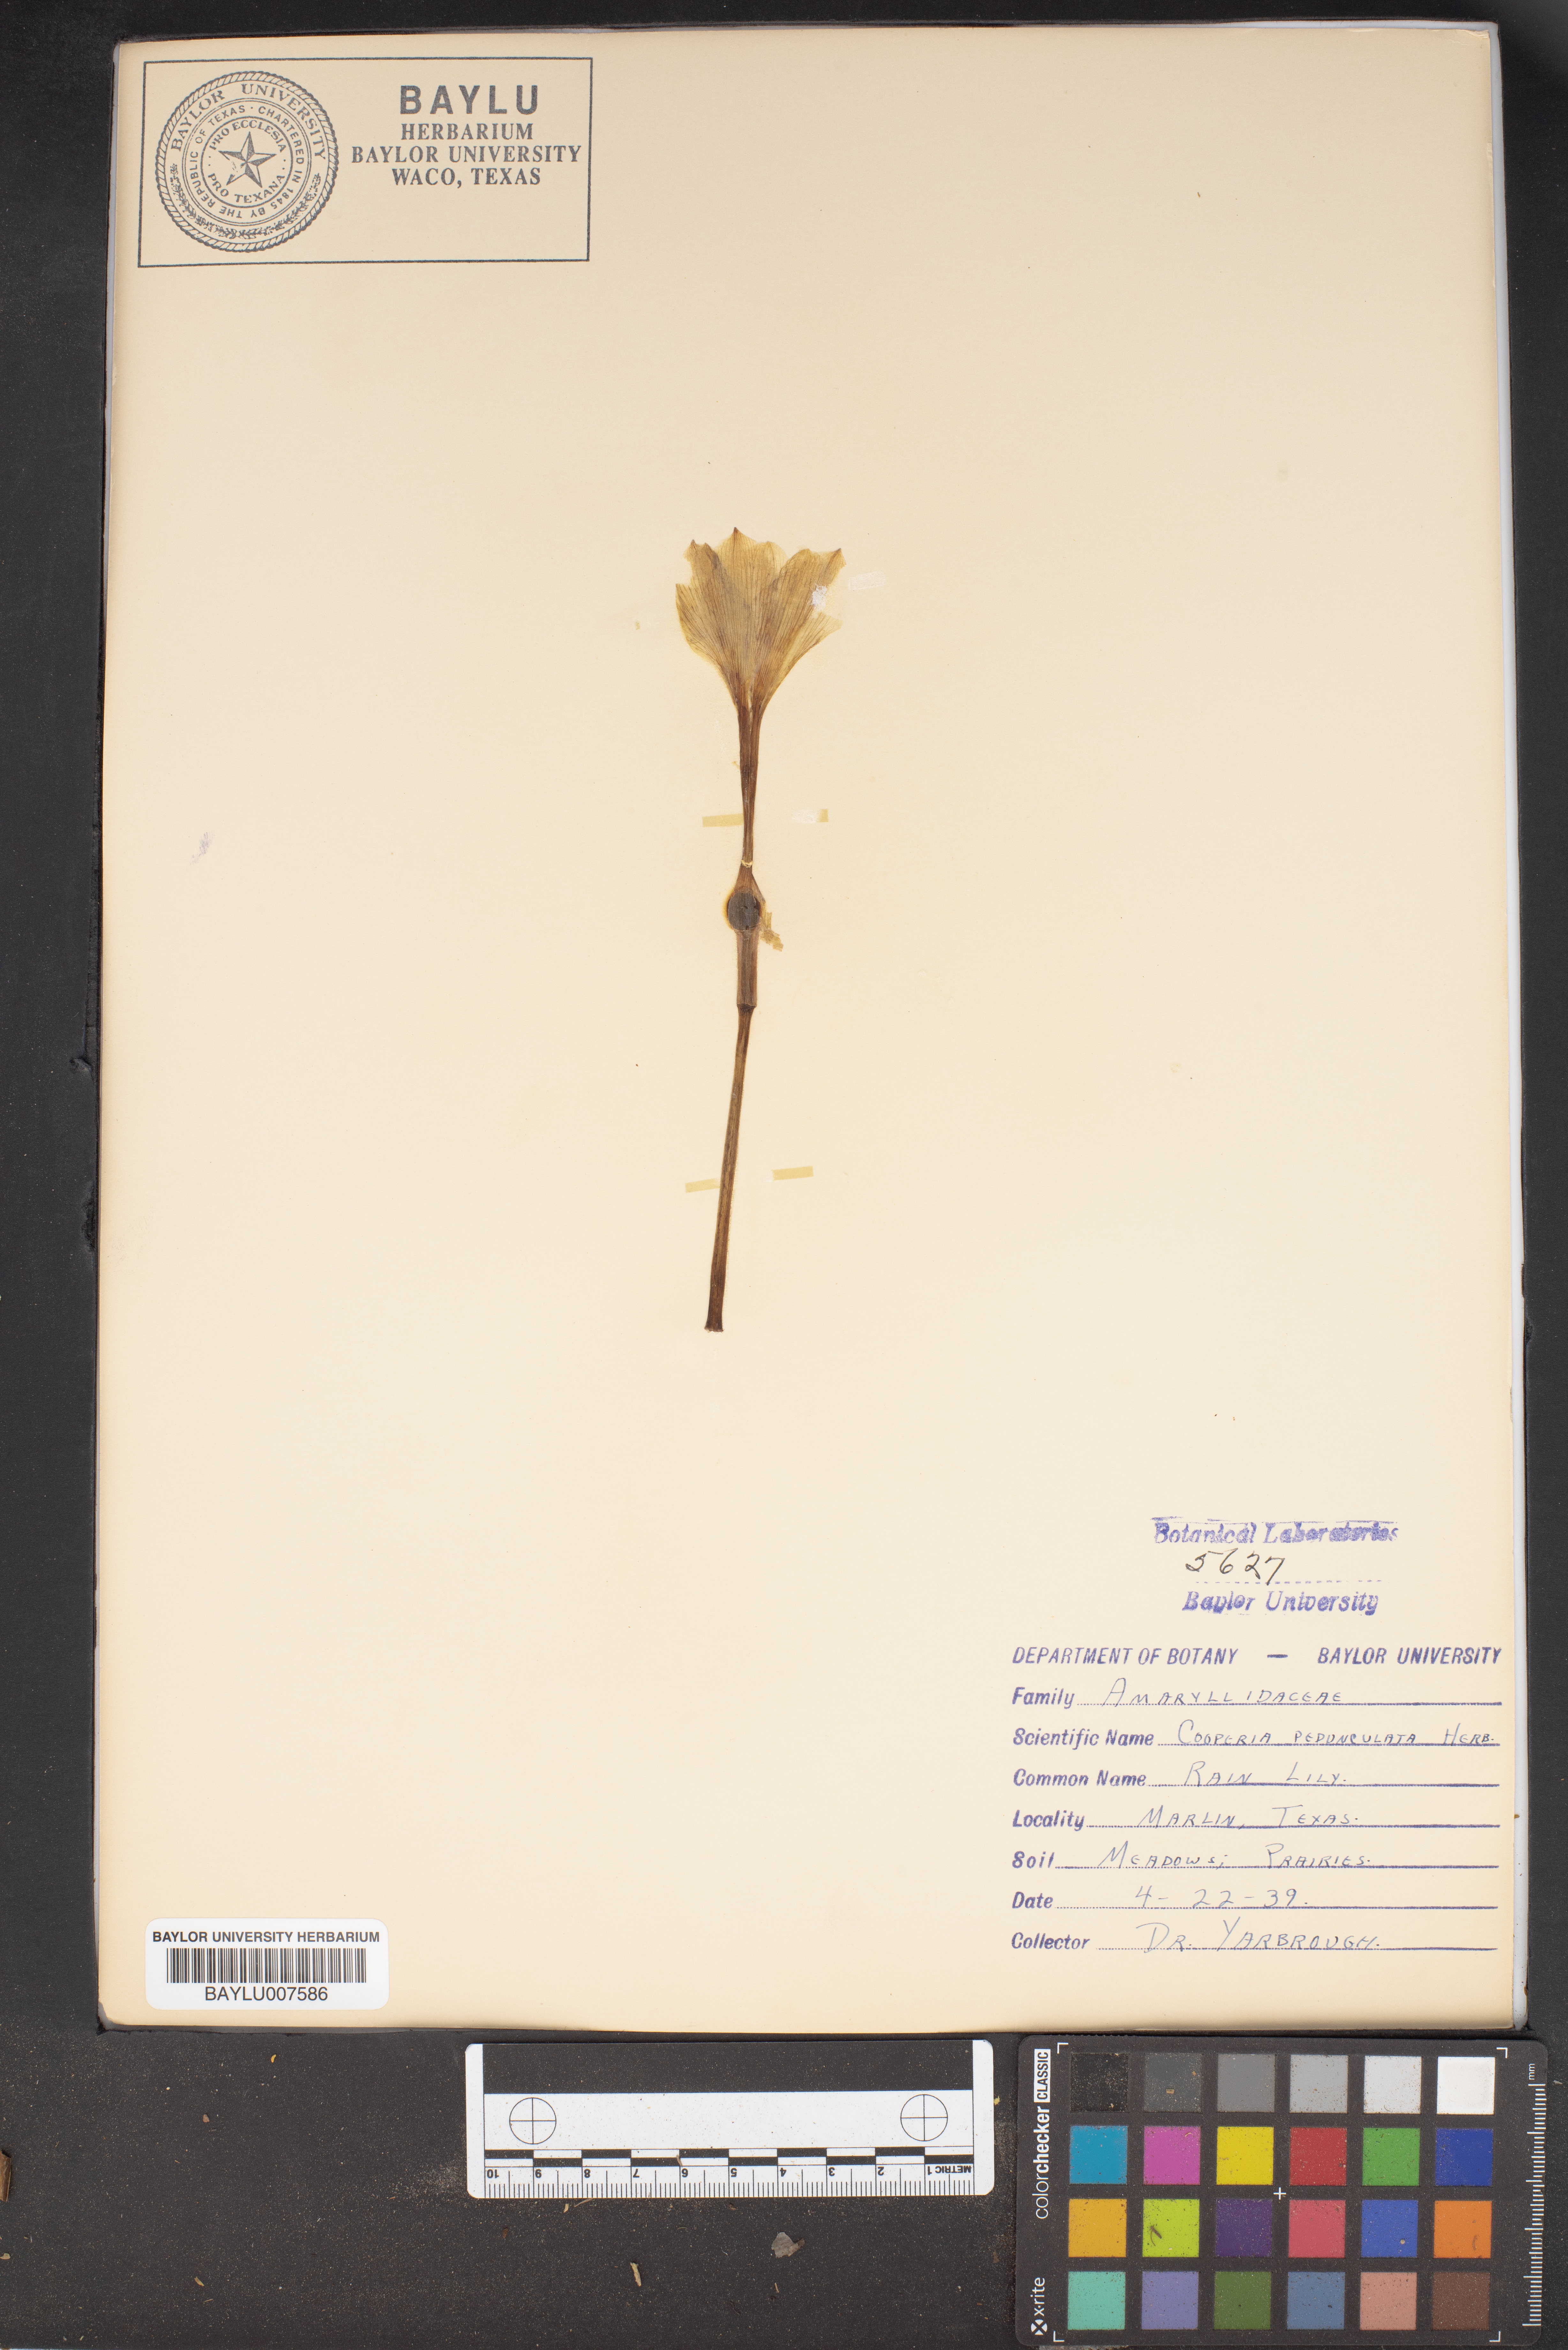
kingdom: Plantae
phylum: Tracheophyta
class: Liliopsida
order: Asparagales
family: Amaryllidaceae
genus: Zephyranthes
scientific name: Zephyranthes drummondii
